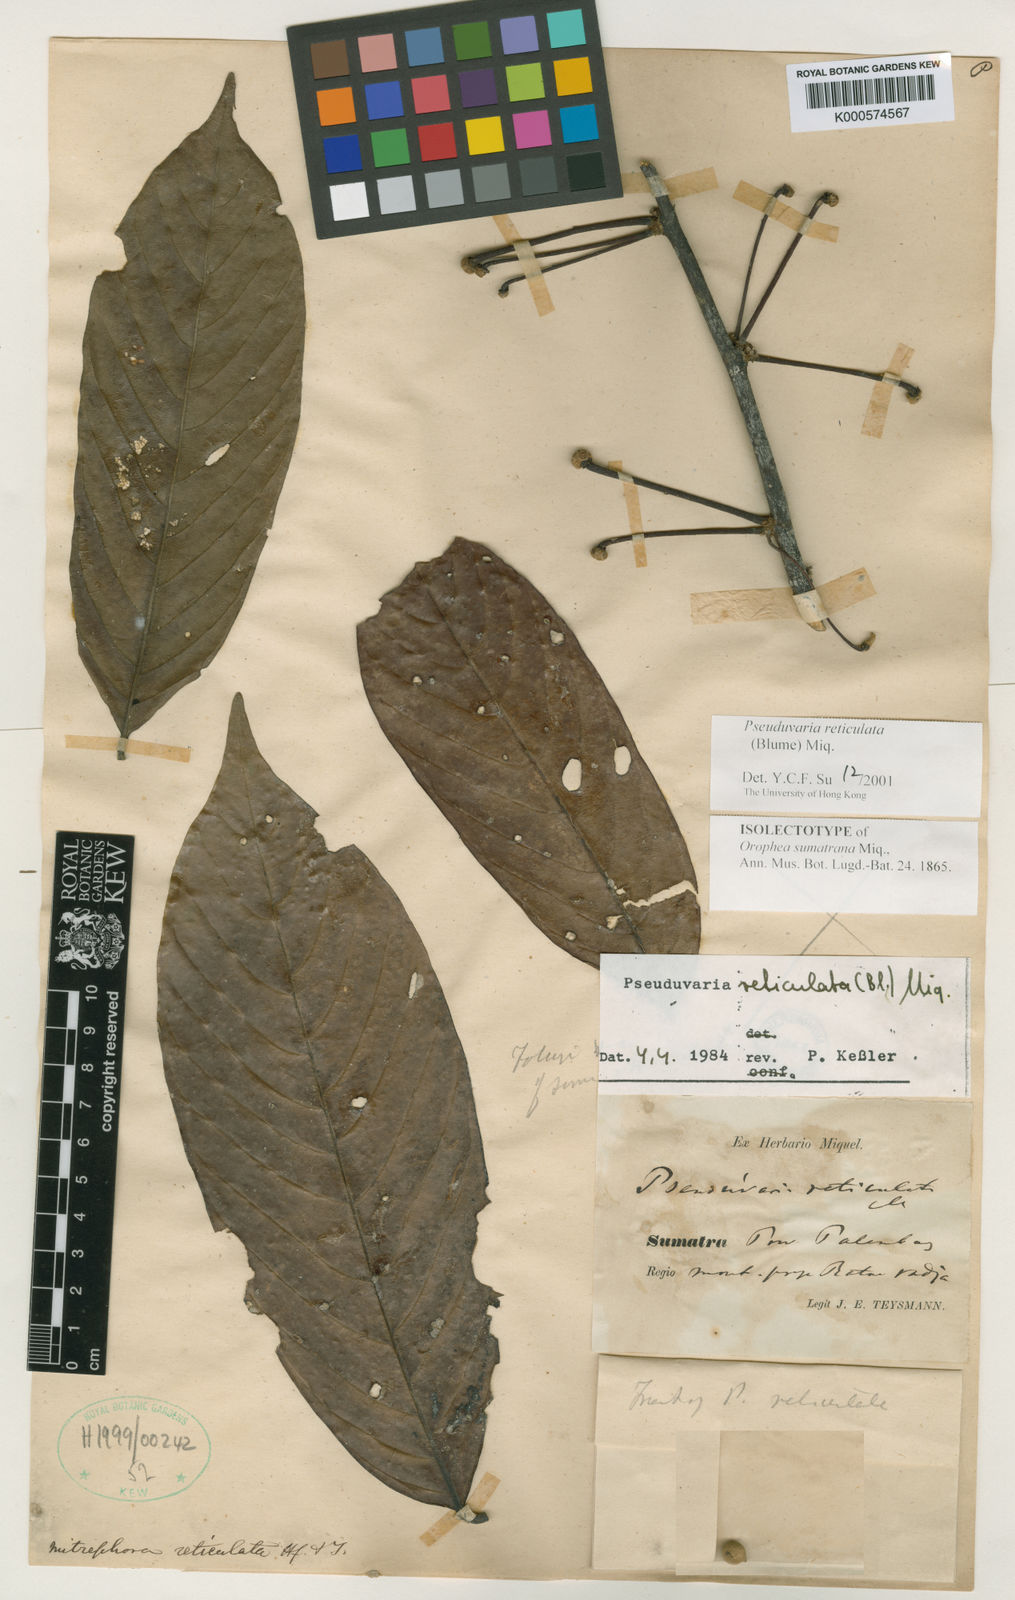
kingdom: Plantae
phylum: Tracheophyta
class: Magnoliopsida
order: Magnoliales
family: Annonaceae
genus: Pseuduvaria
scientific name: Pseuduvaria reticulata
